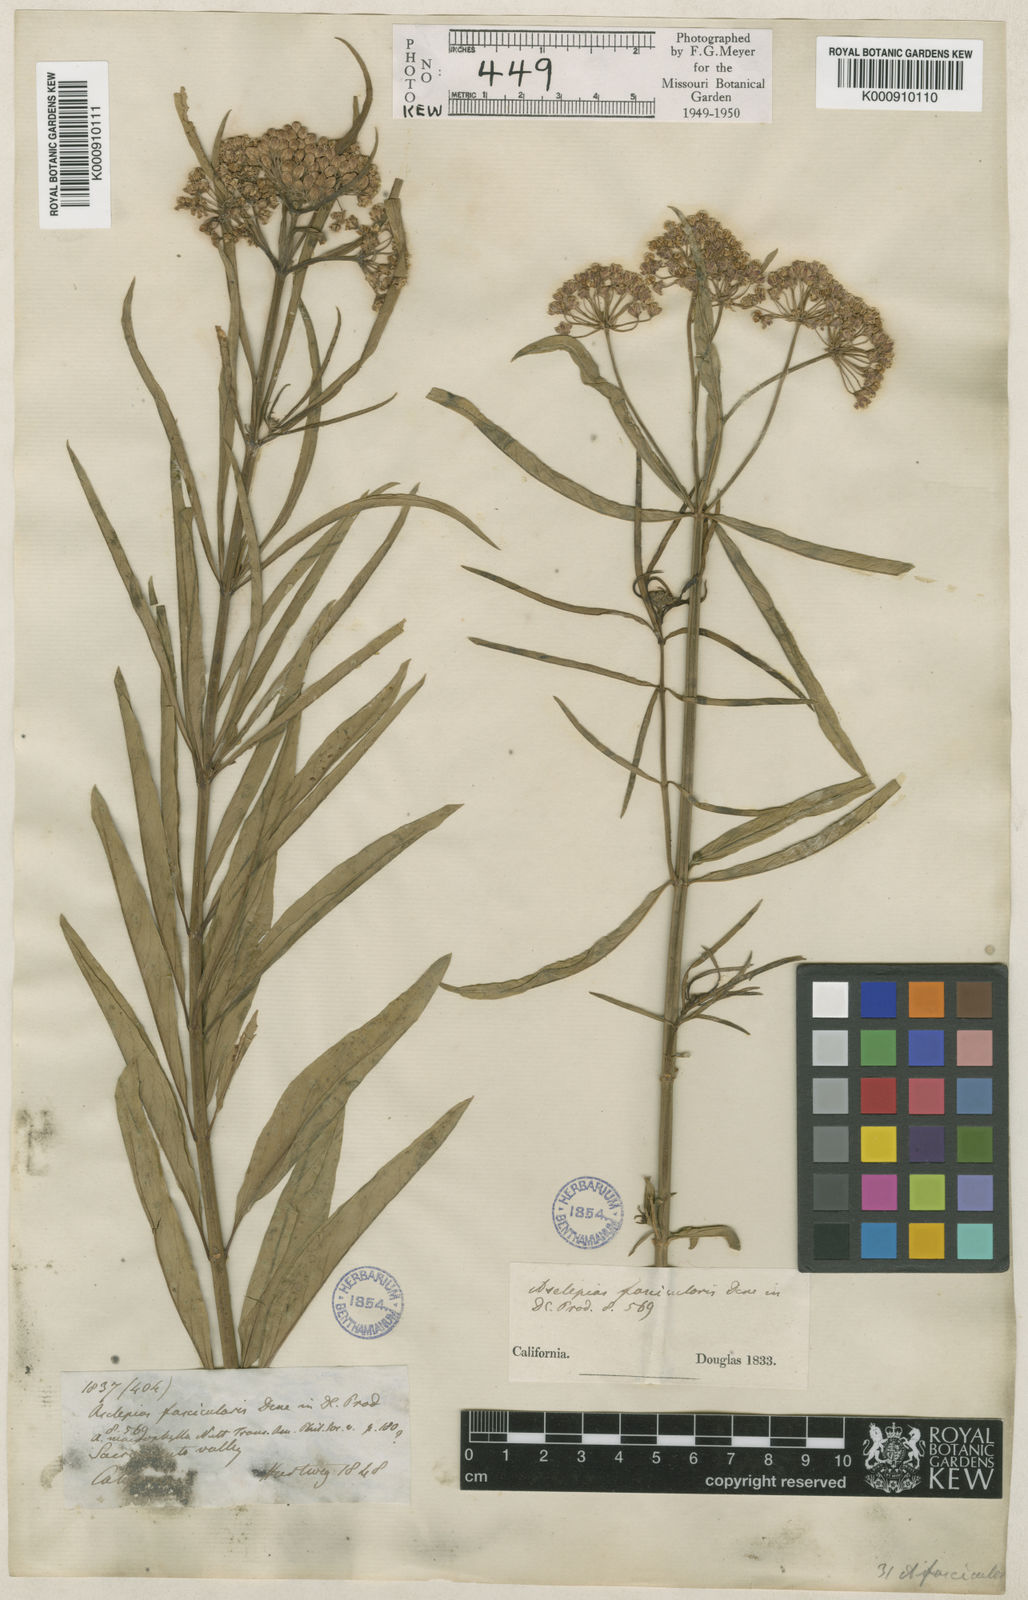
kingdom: Plantae
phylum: Tracheophyta
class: Magnoliopsida
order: Gentianales
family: Apocynaceae
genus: Asclepias
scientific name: Asclepias fascicularis
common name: Mexican milkweed
